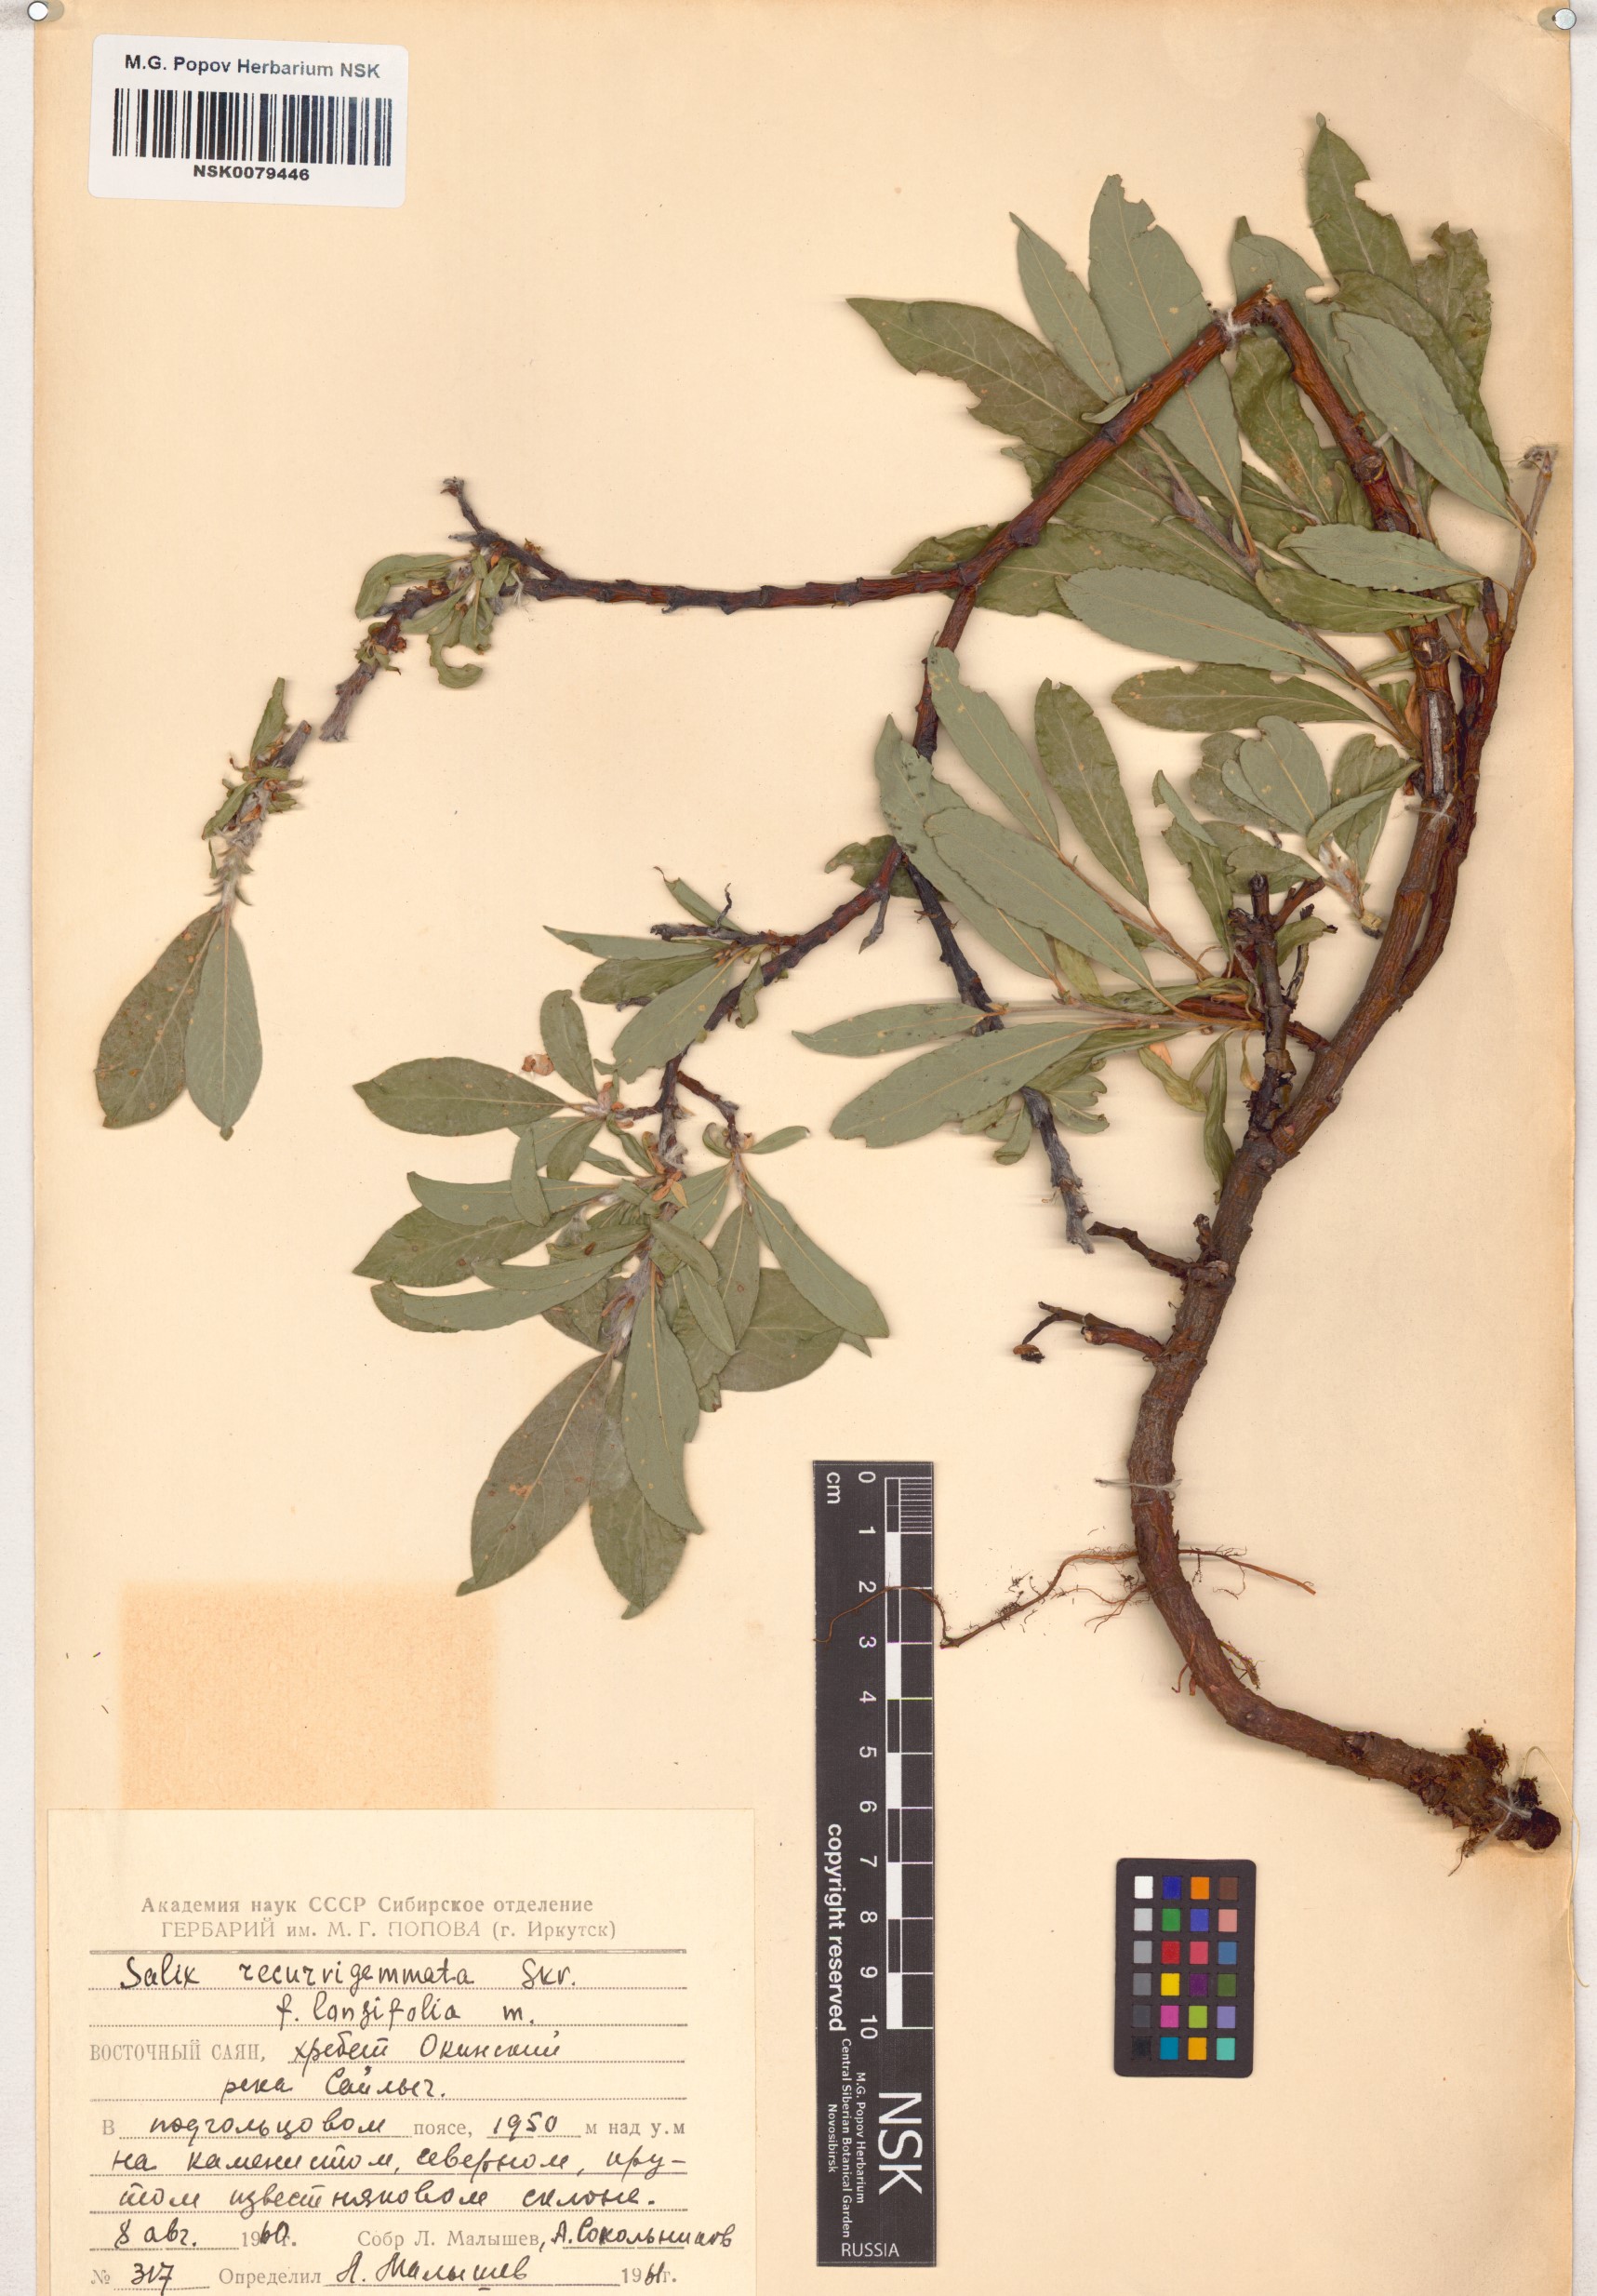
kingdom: Plantae
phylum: Tracheophyta
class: Magnoliopsida
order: Malpighiales
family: Salicaceae
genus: Salix
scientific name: Salix recurvigemmata
